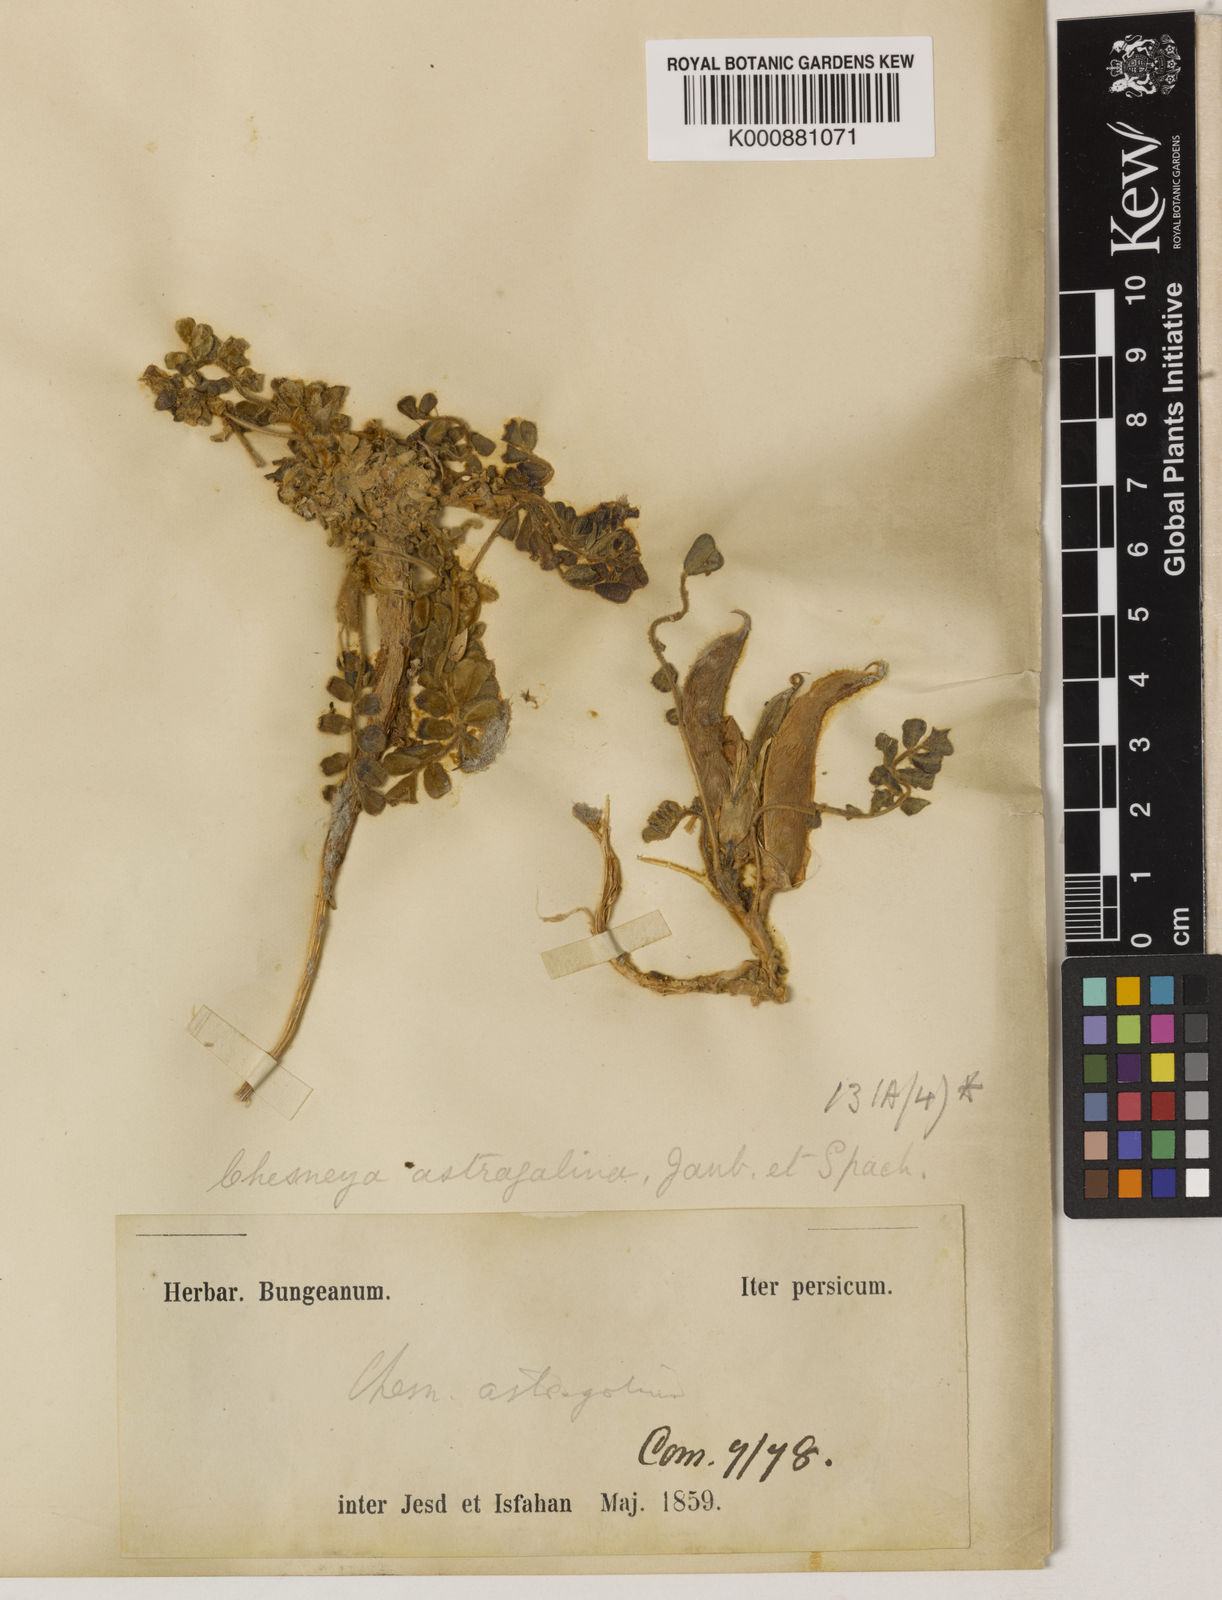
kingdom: Plantae
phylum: Tracheophyta
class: Magnoliopsida
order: Fabales
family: Fabaceae
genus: Chesneya
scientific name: Chesneya astragalina
